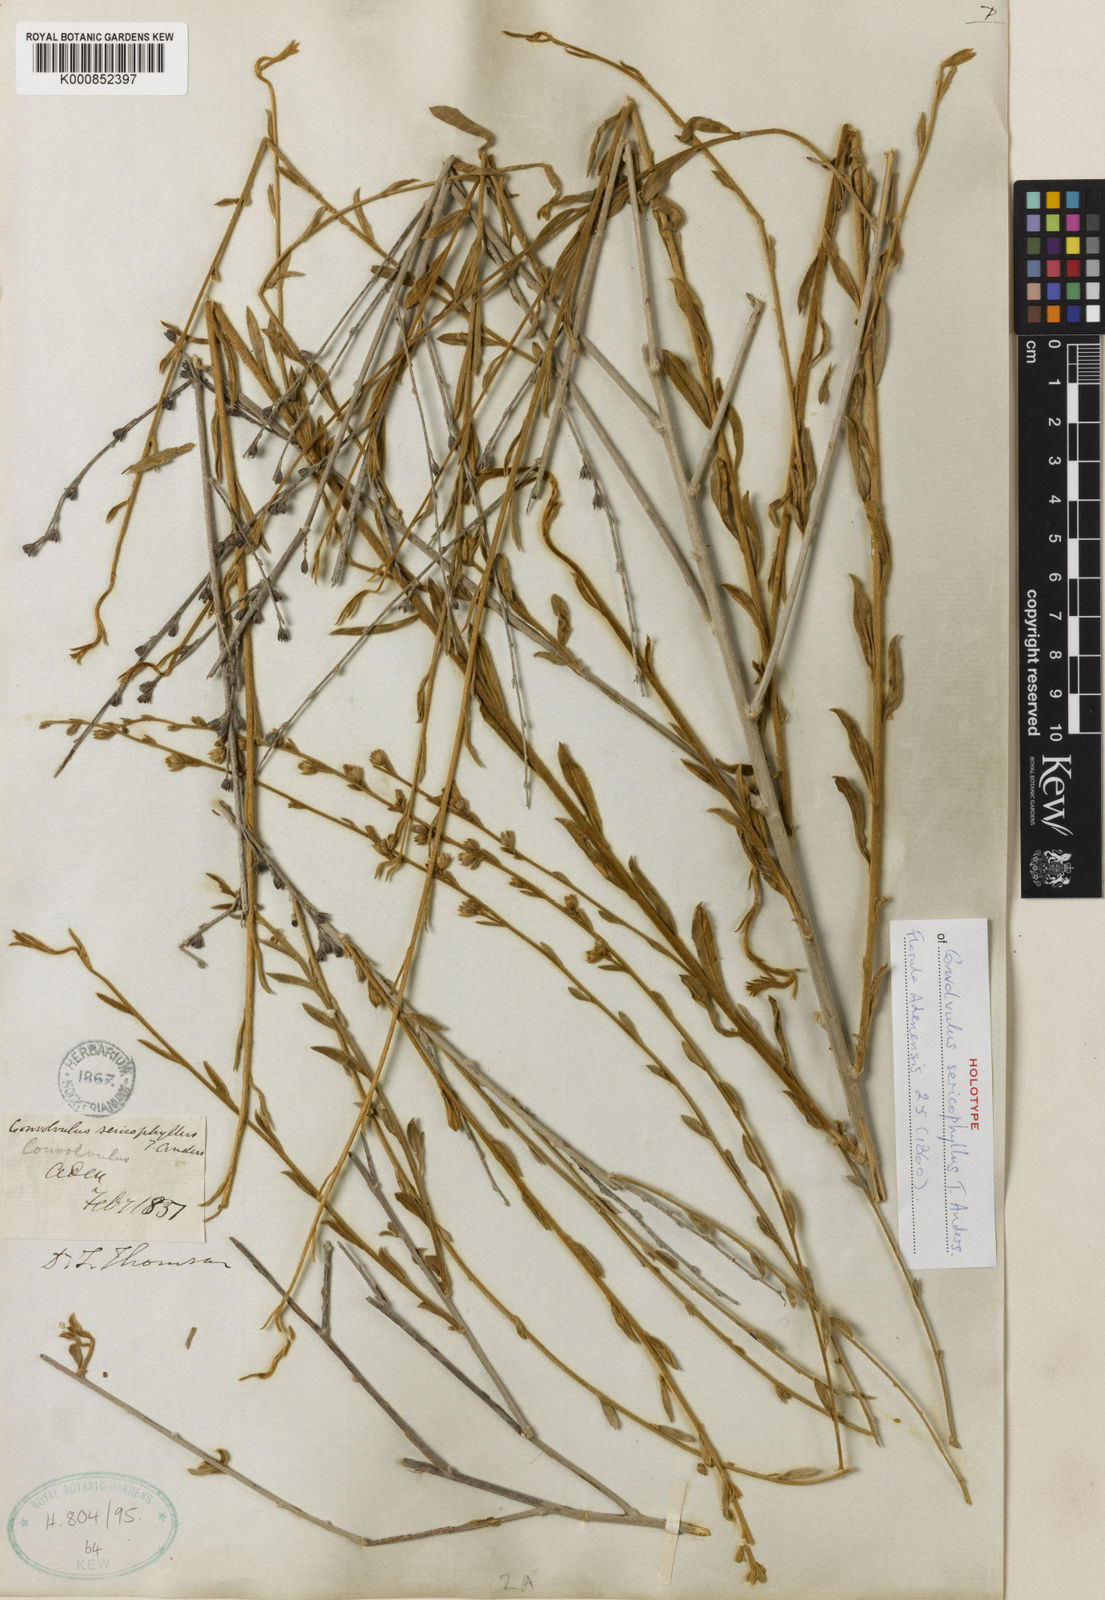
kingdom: Plantae
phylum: Tracheophyta
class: Magnoliopsida
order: Solanales
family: Convolvulaceae
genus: Convolvulus
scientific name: Convolvulus sericophyllus
